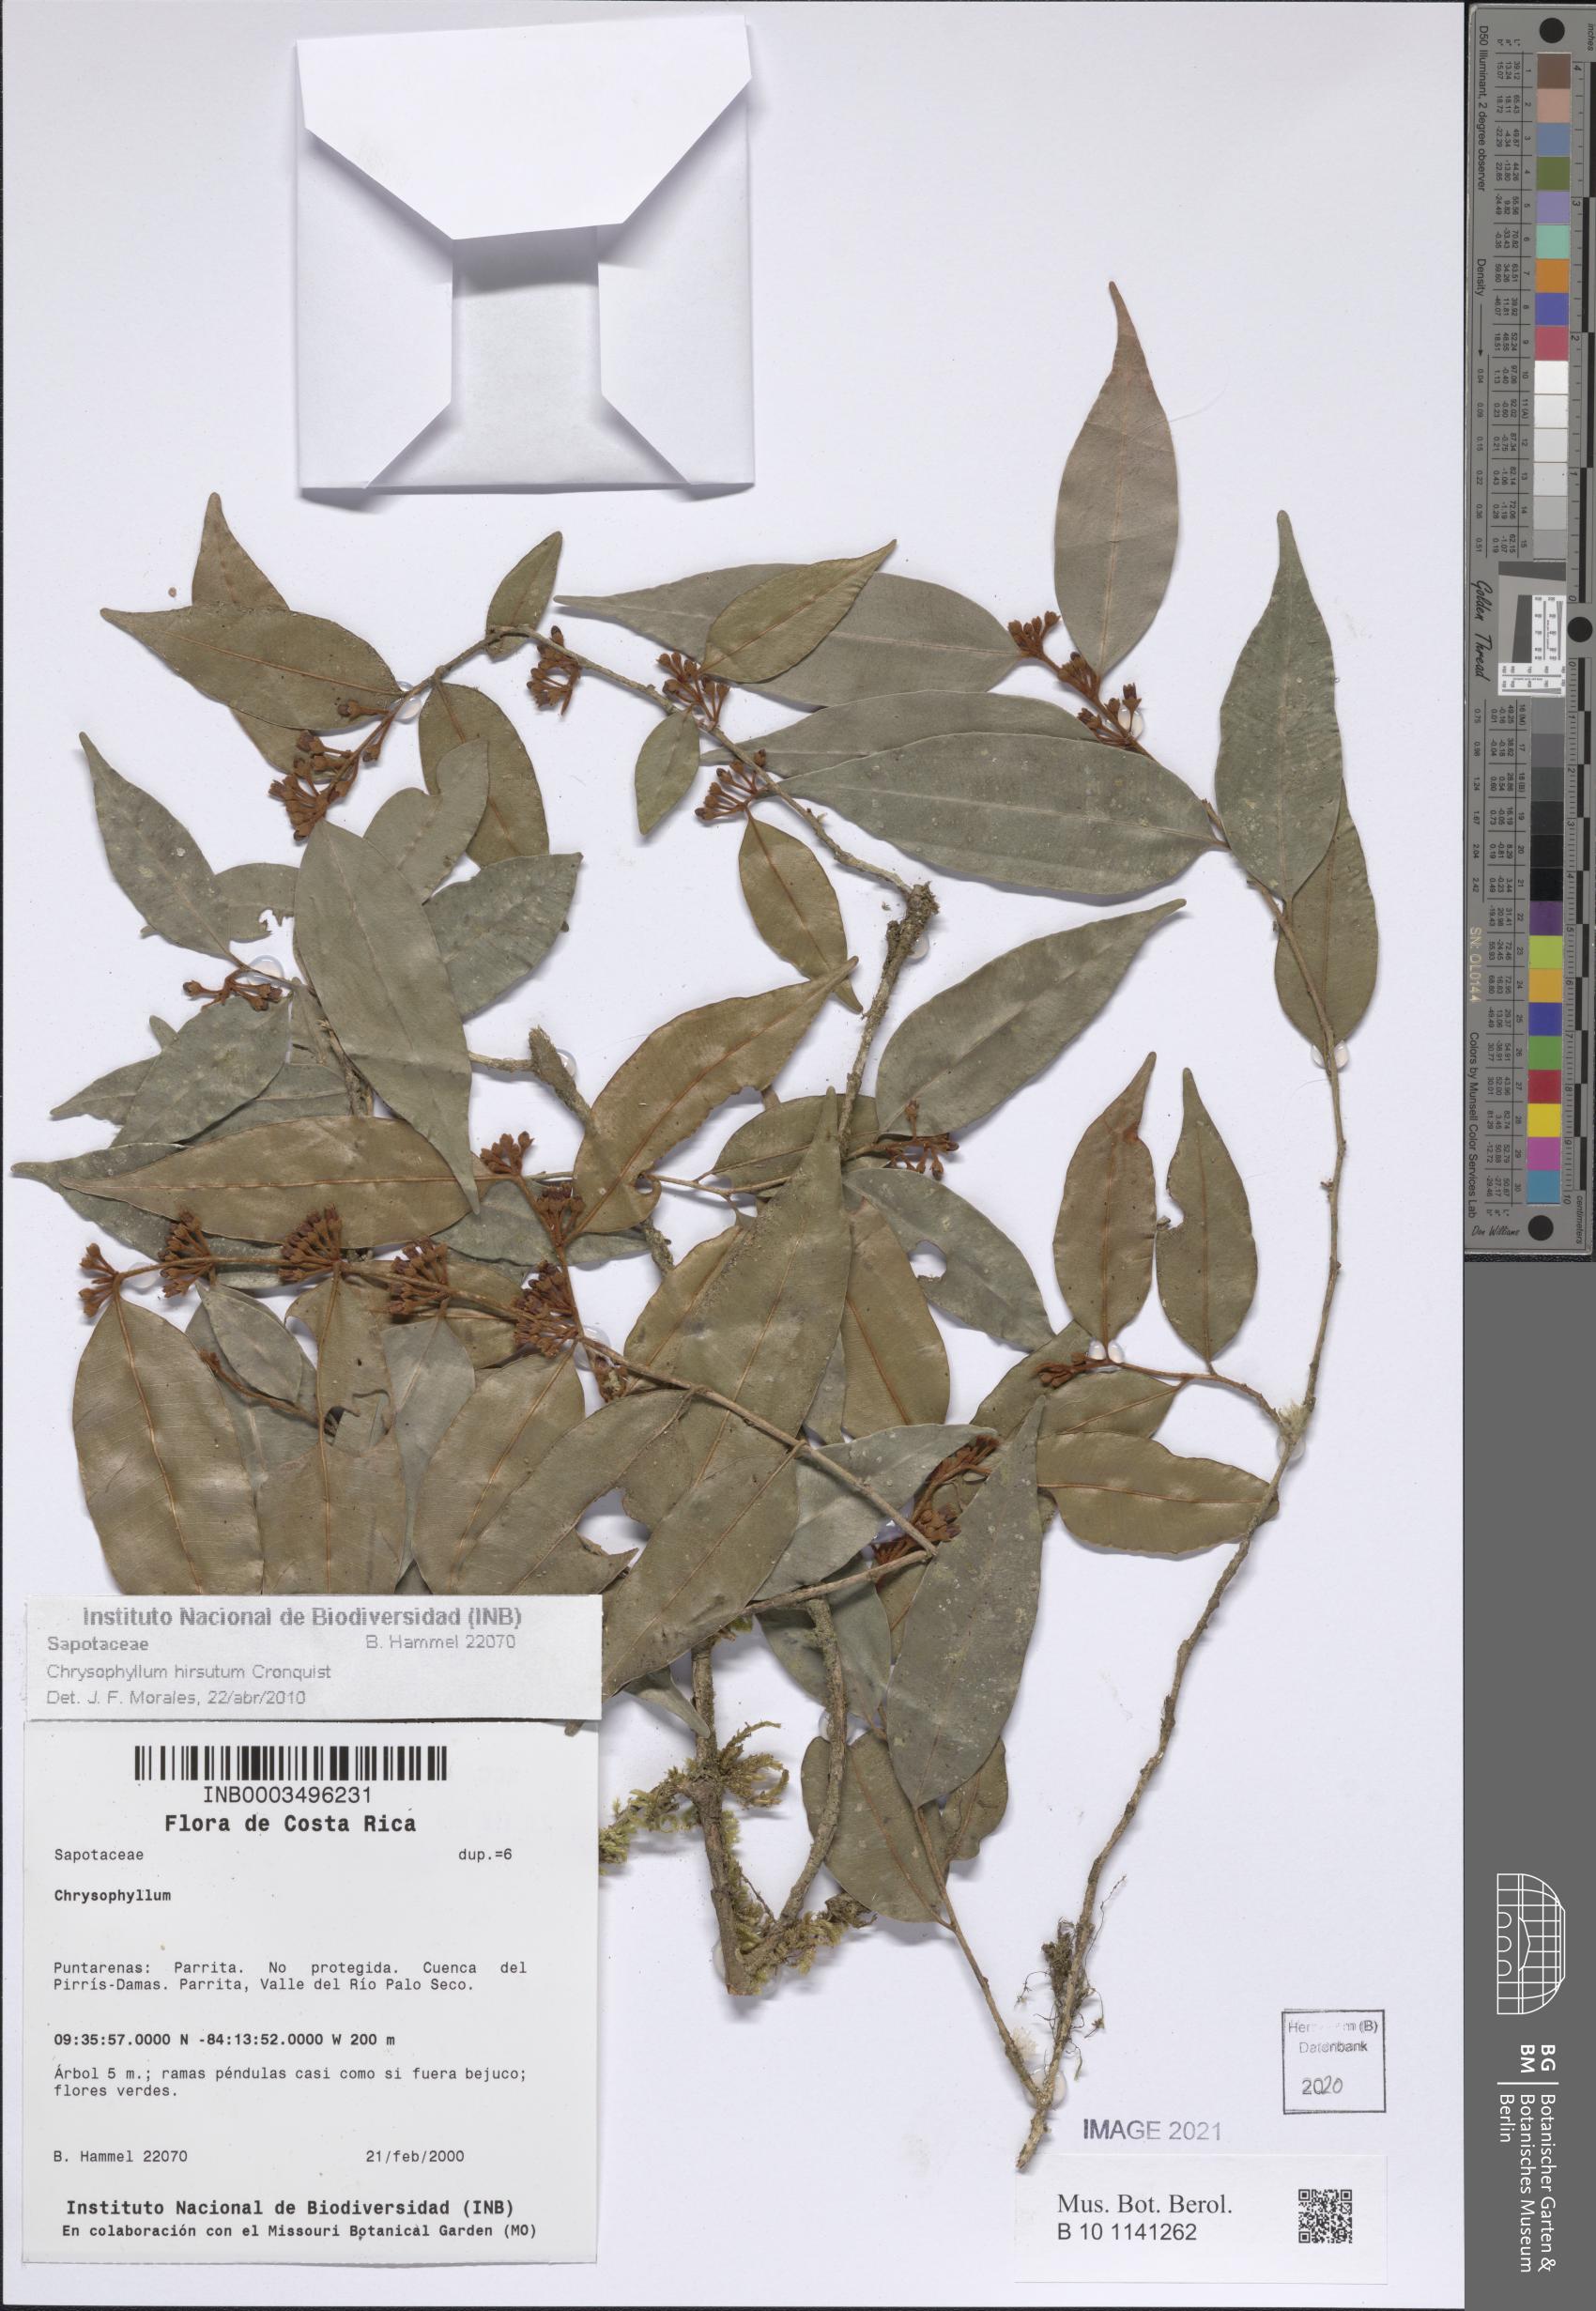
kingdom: Plantae
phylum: Tracheophyta
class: Magnoliopsida
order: Ericales
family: Sapotaceae
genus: Chrysophyllum
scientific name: Chrysophyllum hirsutum
